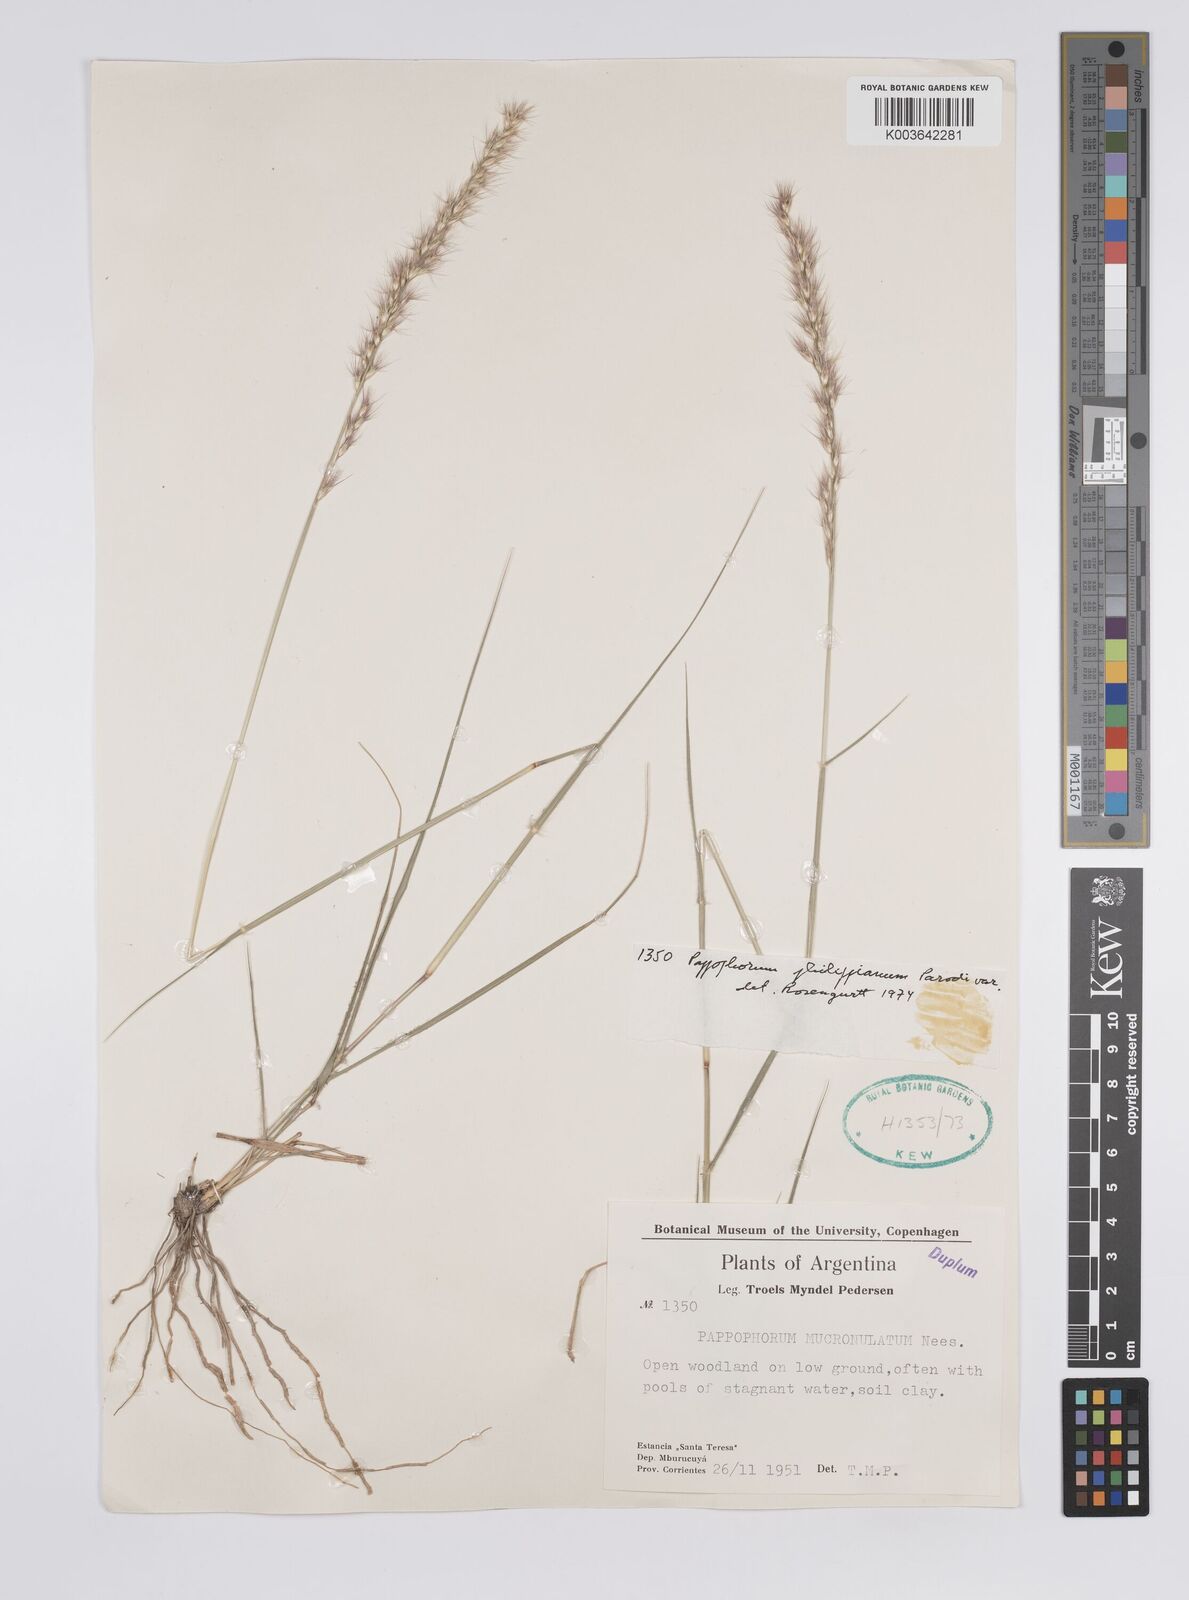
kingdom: Plantae
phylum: Tracheophyta
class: Liliopsida
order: Poales
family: Poaceae
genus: Pappophorum
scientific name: Pappophorum philippianum
